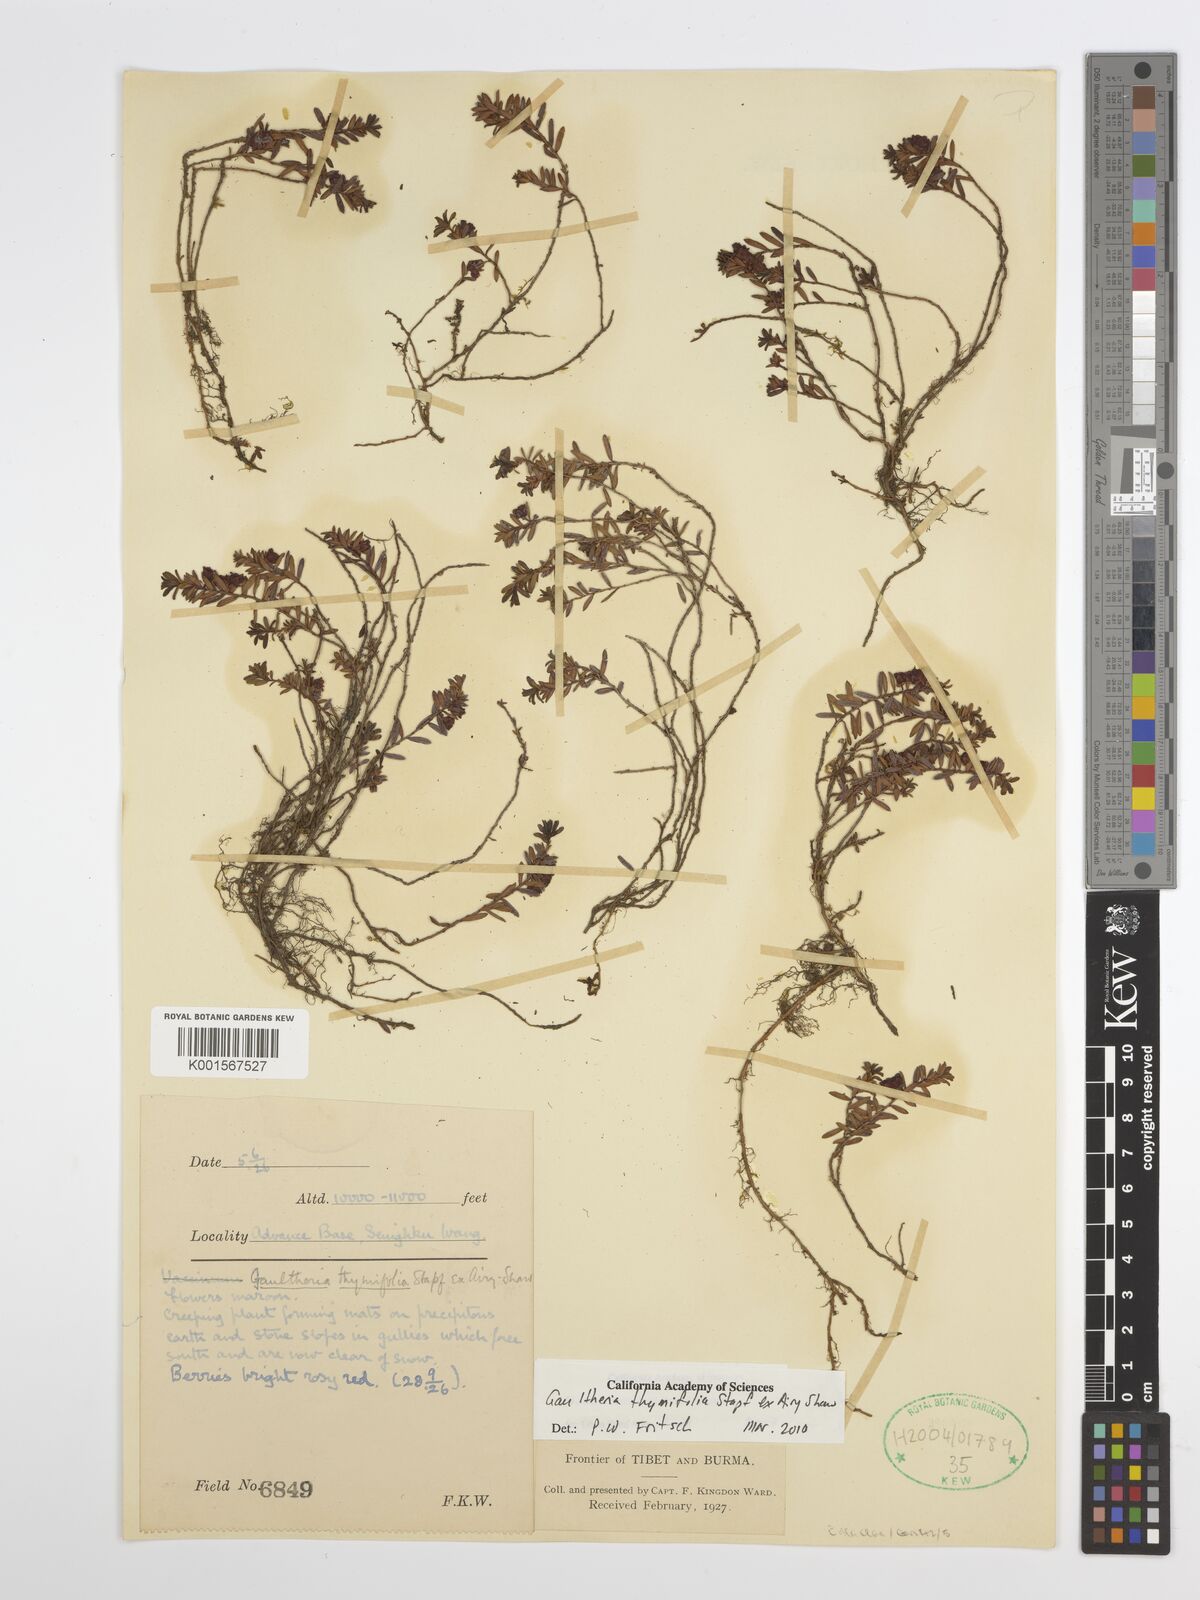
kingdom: Plantae
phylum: Tracheophyta
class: Magnoliopsida
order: Ericales
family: Ericaceae
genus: Gaultheria
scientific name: Gaultheria thymifolia
